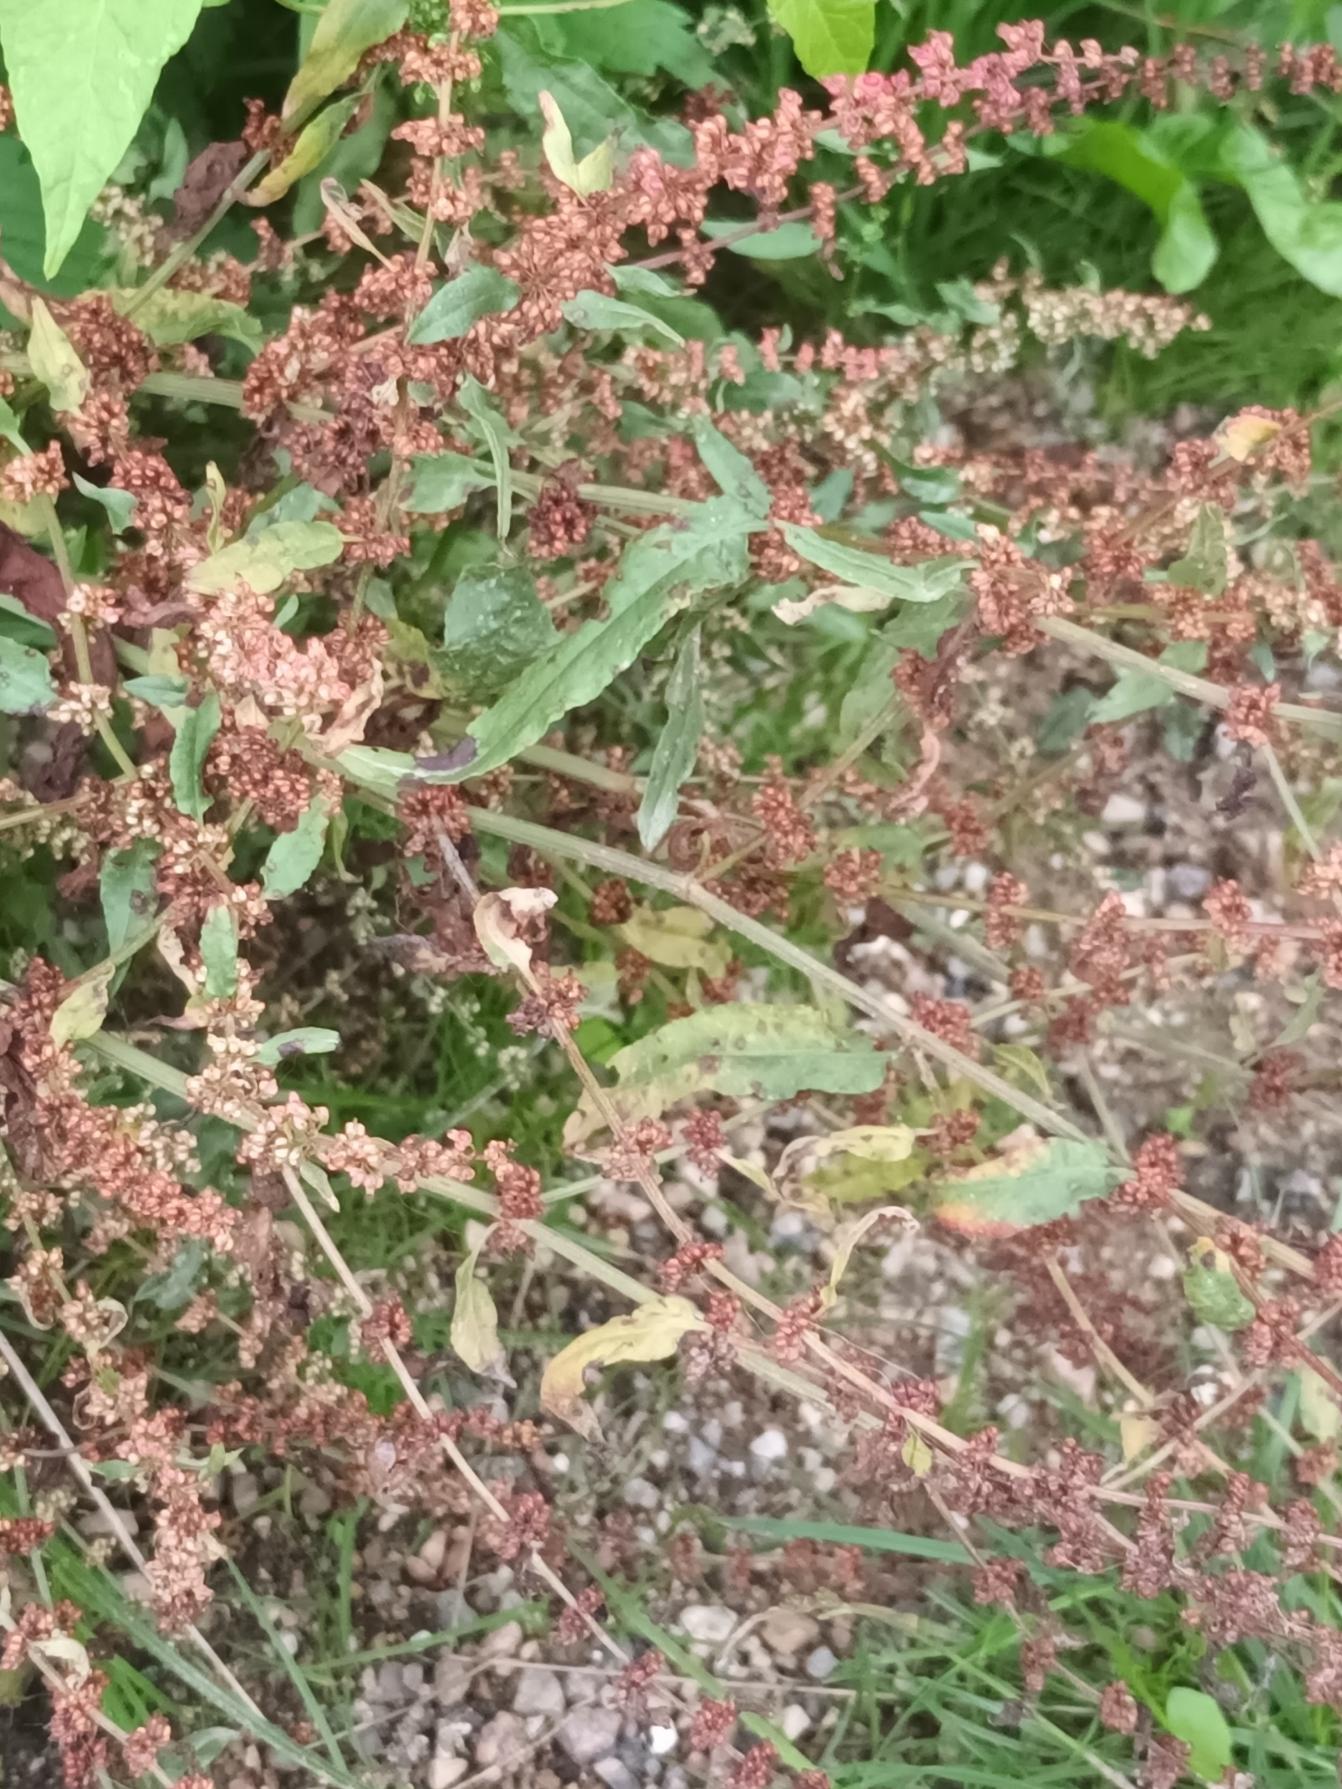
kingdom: Plantae
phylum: Tracheophyta
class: Magnoliopsida
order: Caryophyllales
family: Polygonaceae
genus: Rumex
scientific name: Rumex conglomeratus
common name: Nøgle-skræppe
